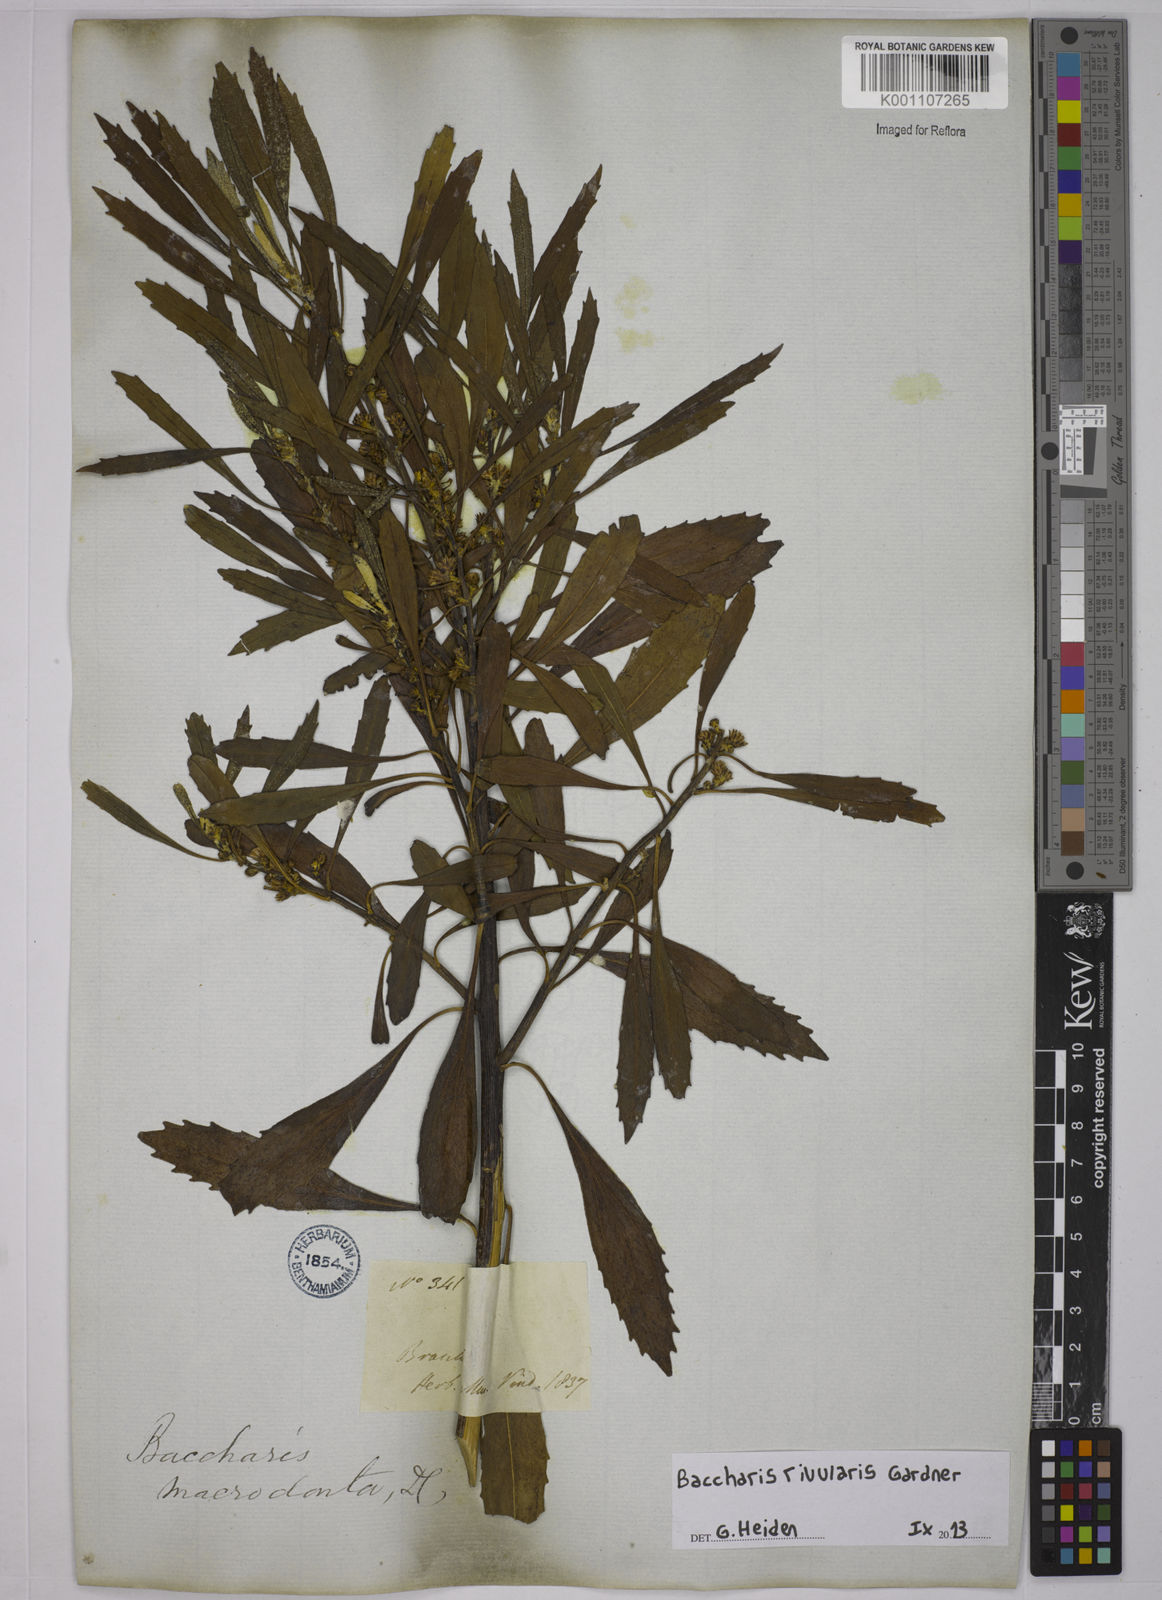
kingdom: Plantae
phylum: Tracheophyta
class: Magnoliopsida
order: Asterales
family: Asteraceae
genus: Baccharis
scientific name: Baccharis rivularis
